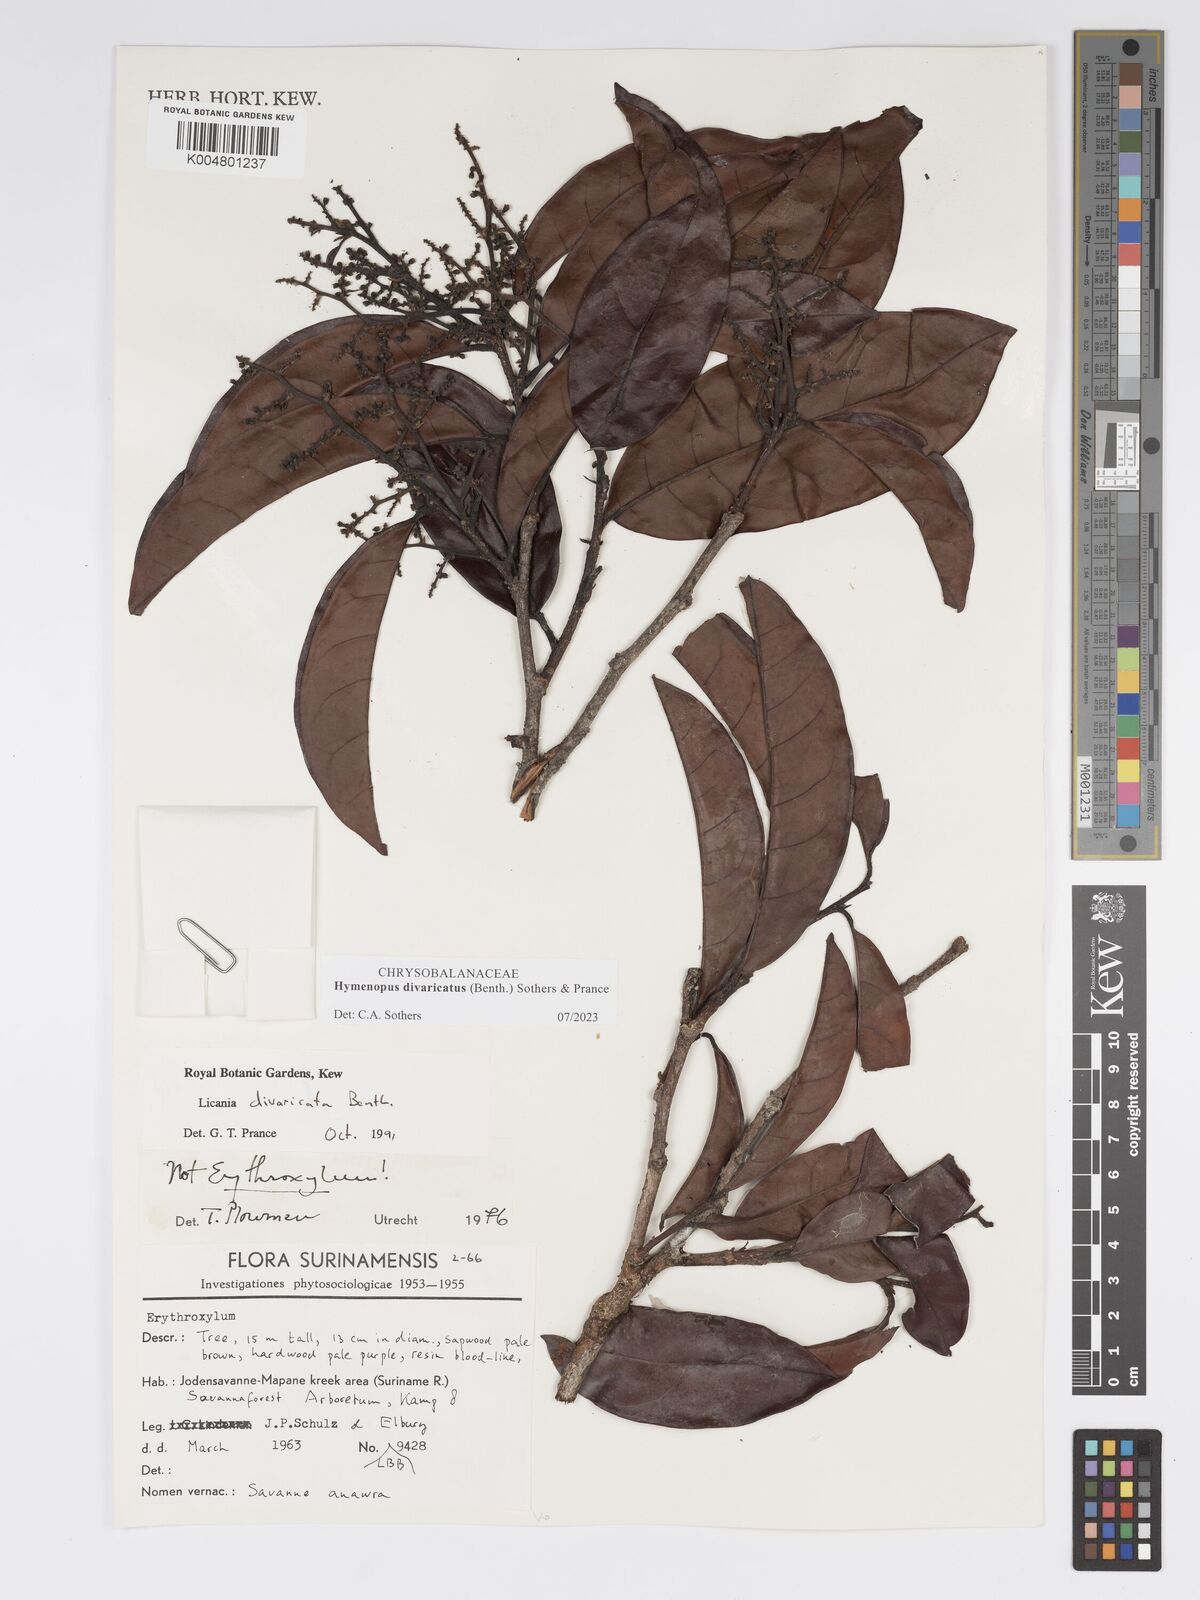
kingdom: Plantae
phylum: Tracheophyta
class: Magnoliopsida
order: Malpighiales
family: Chrysobalanaceae
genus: Hymenopus
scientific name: Hymenopus divaricatus
